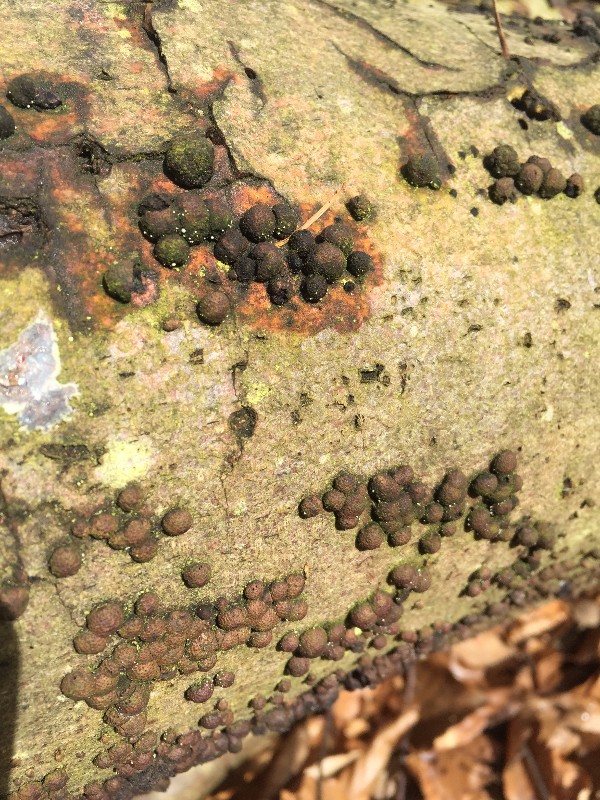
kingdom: Fungi
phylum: Ascomycota
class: Sordariomycetes
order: Xylariales
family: Hypoxylaceae
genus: Hypoxylon
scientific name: Hypoxylon fragiforme
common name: kuljordbær
